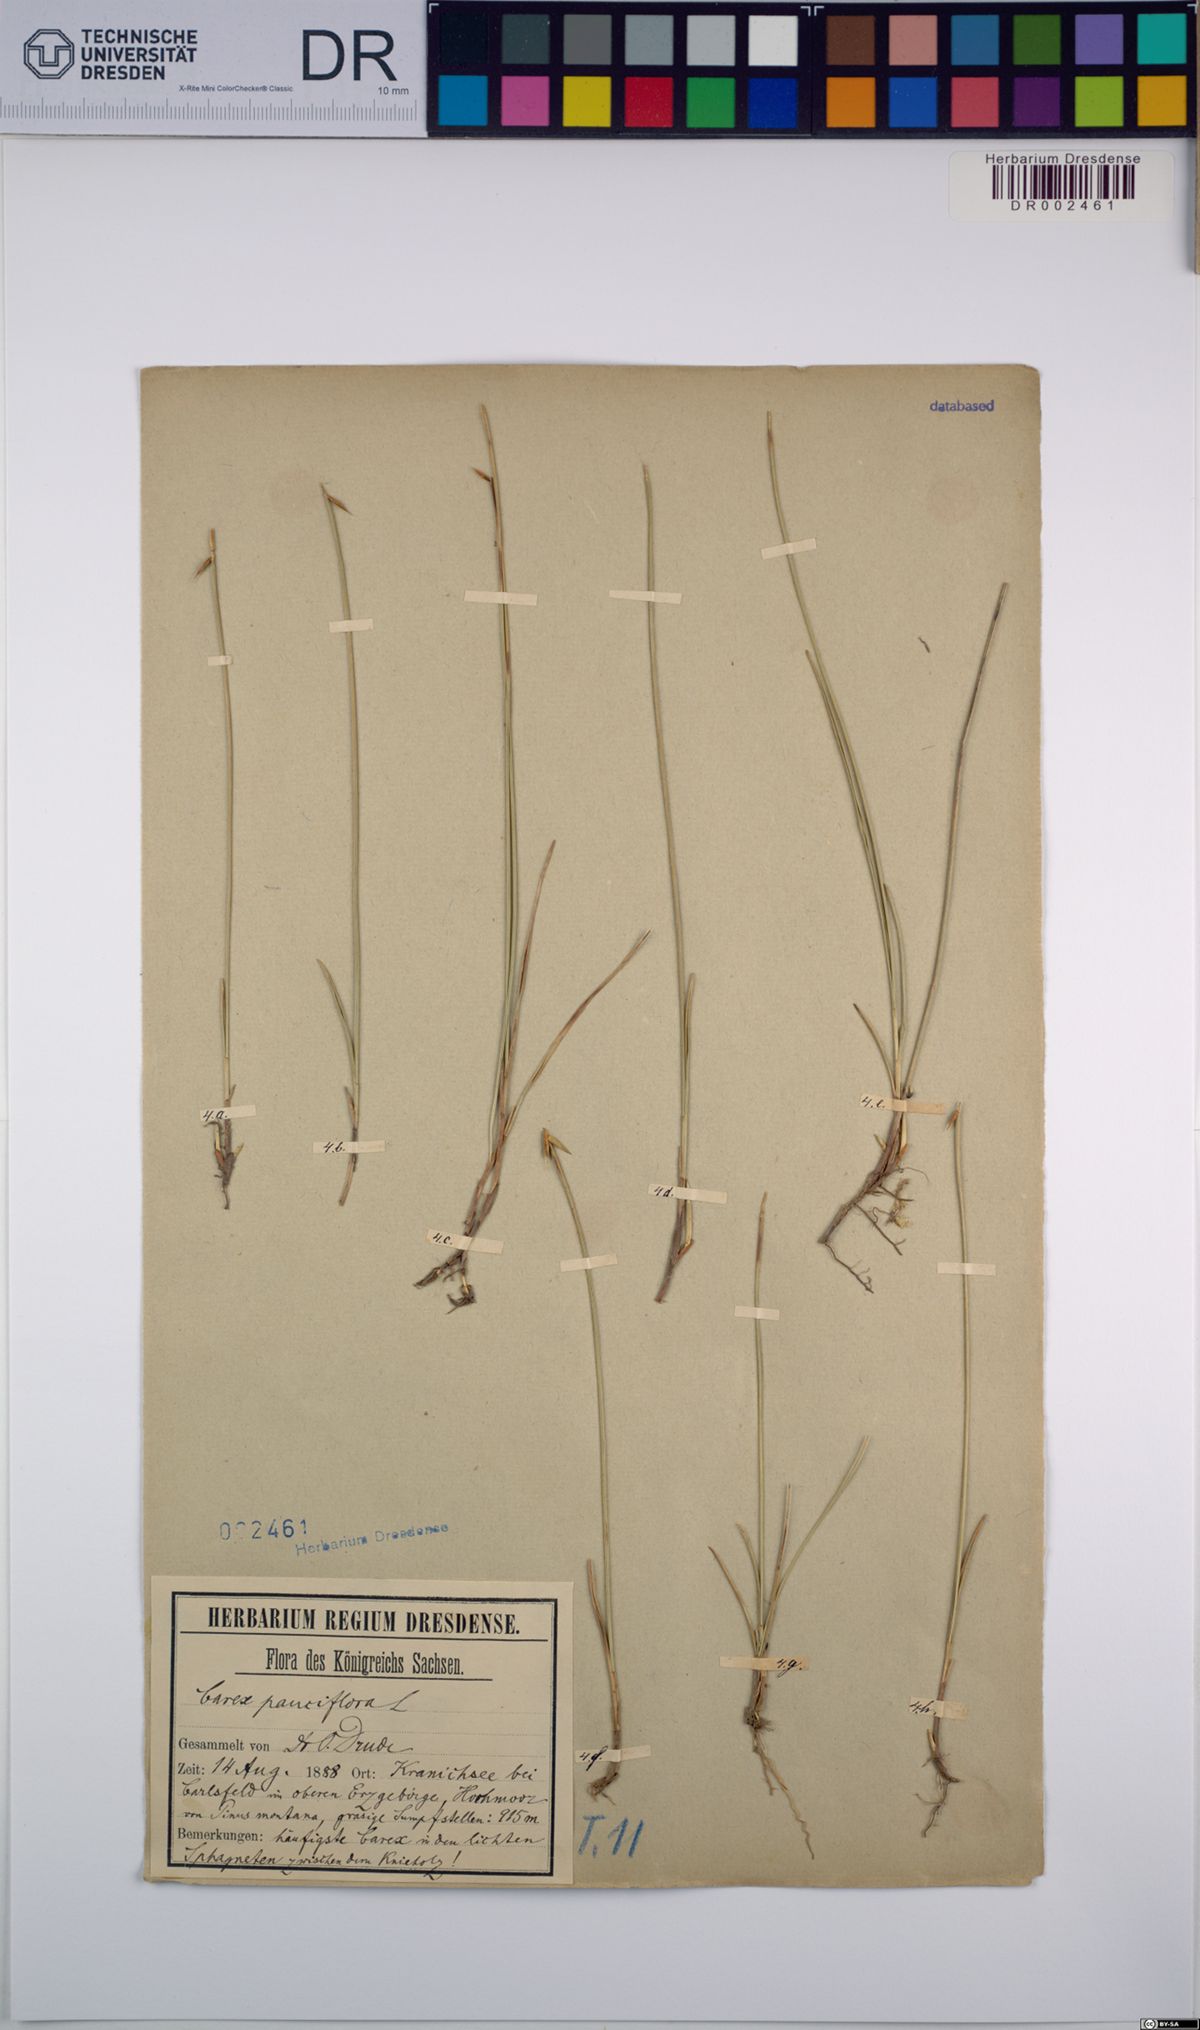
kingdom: Plantae
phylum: Tracheophyta
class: Liliopsida
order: Poales
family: Cyperaceae
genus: Carex
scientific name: Carex pauciflora
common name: Few-flowered sedge
